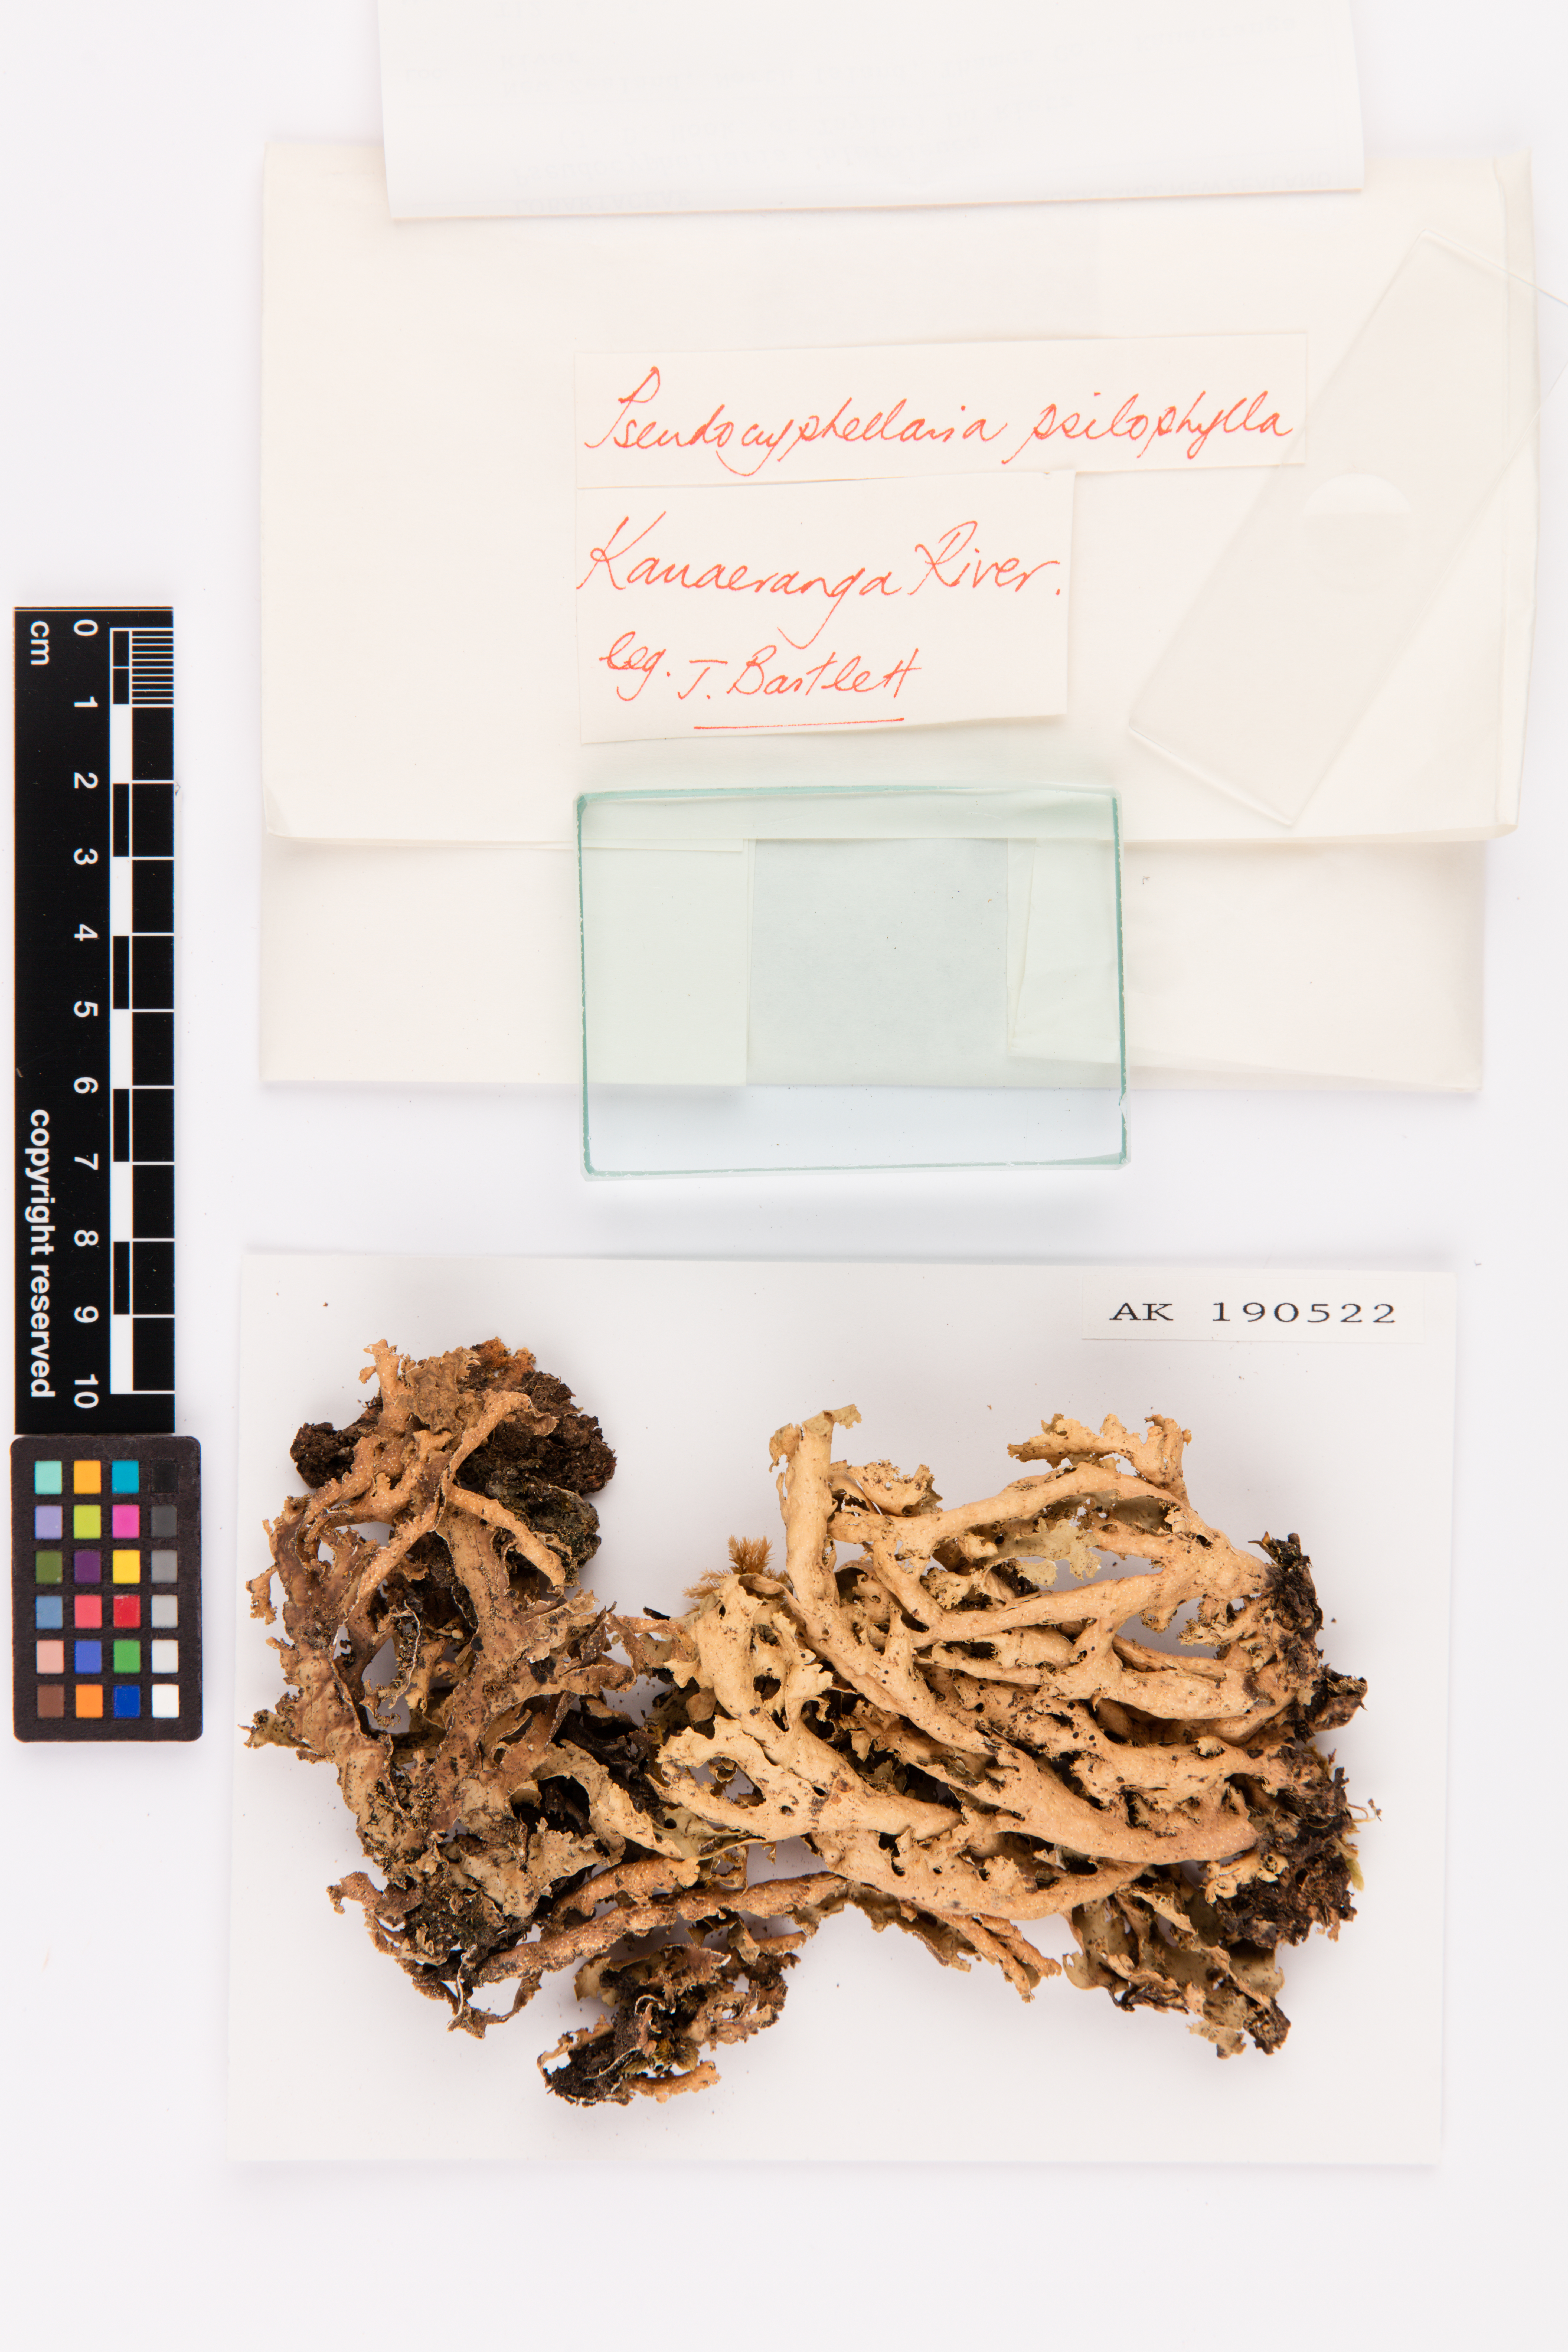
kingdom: Fungi
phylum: Ascomycota
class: Lecanoromycetes
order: Peltigerales
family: Lobariaceae
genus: Pseudocyphellaria
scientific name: Pseudocyphellaria chloroleuca
